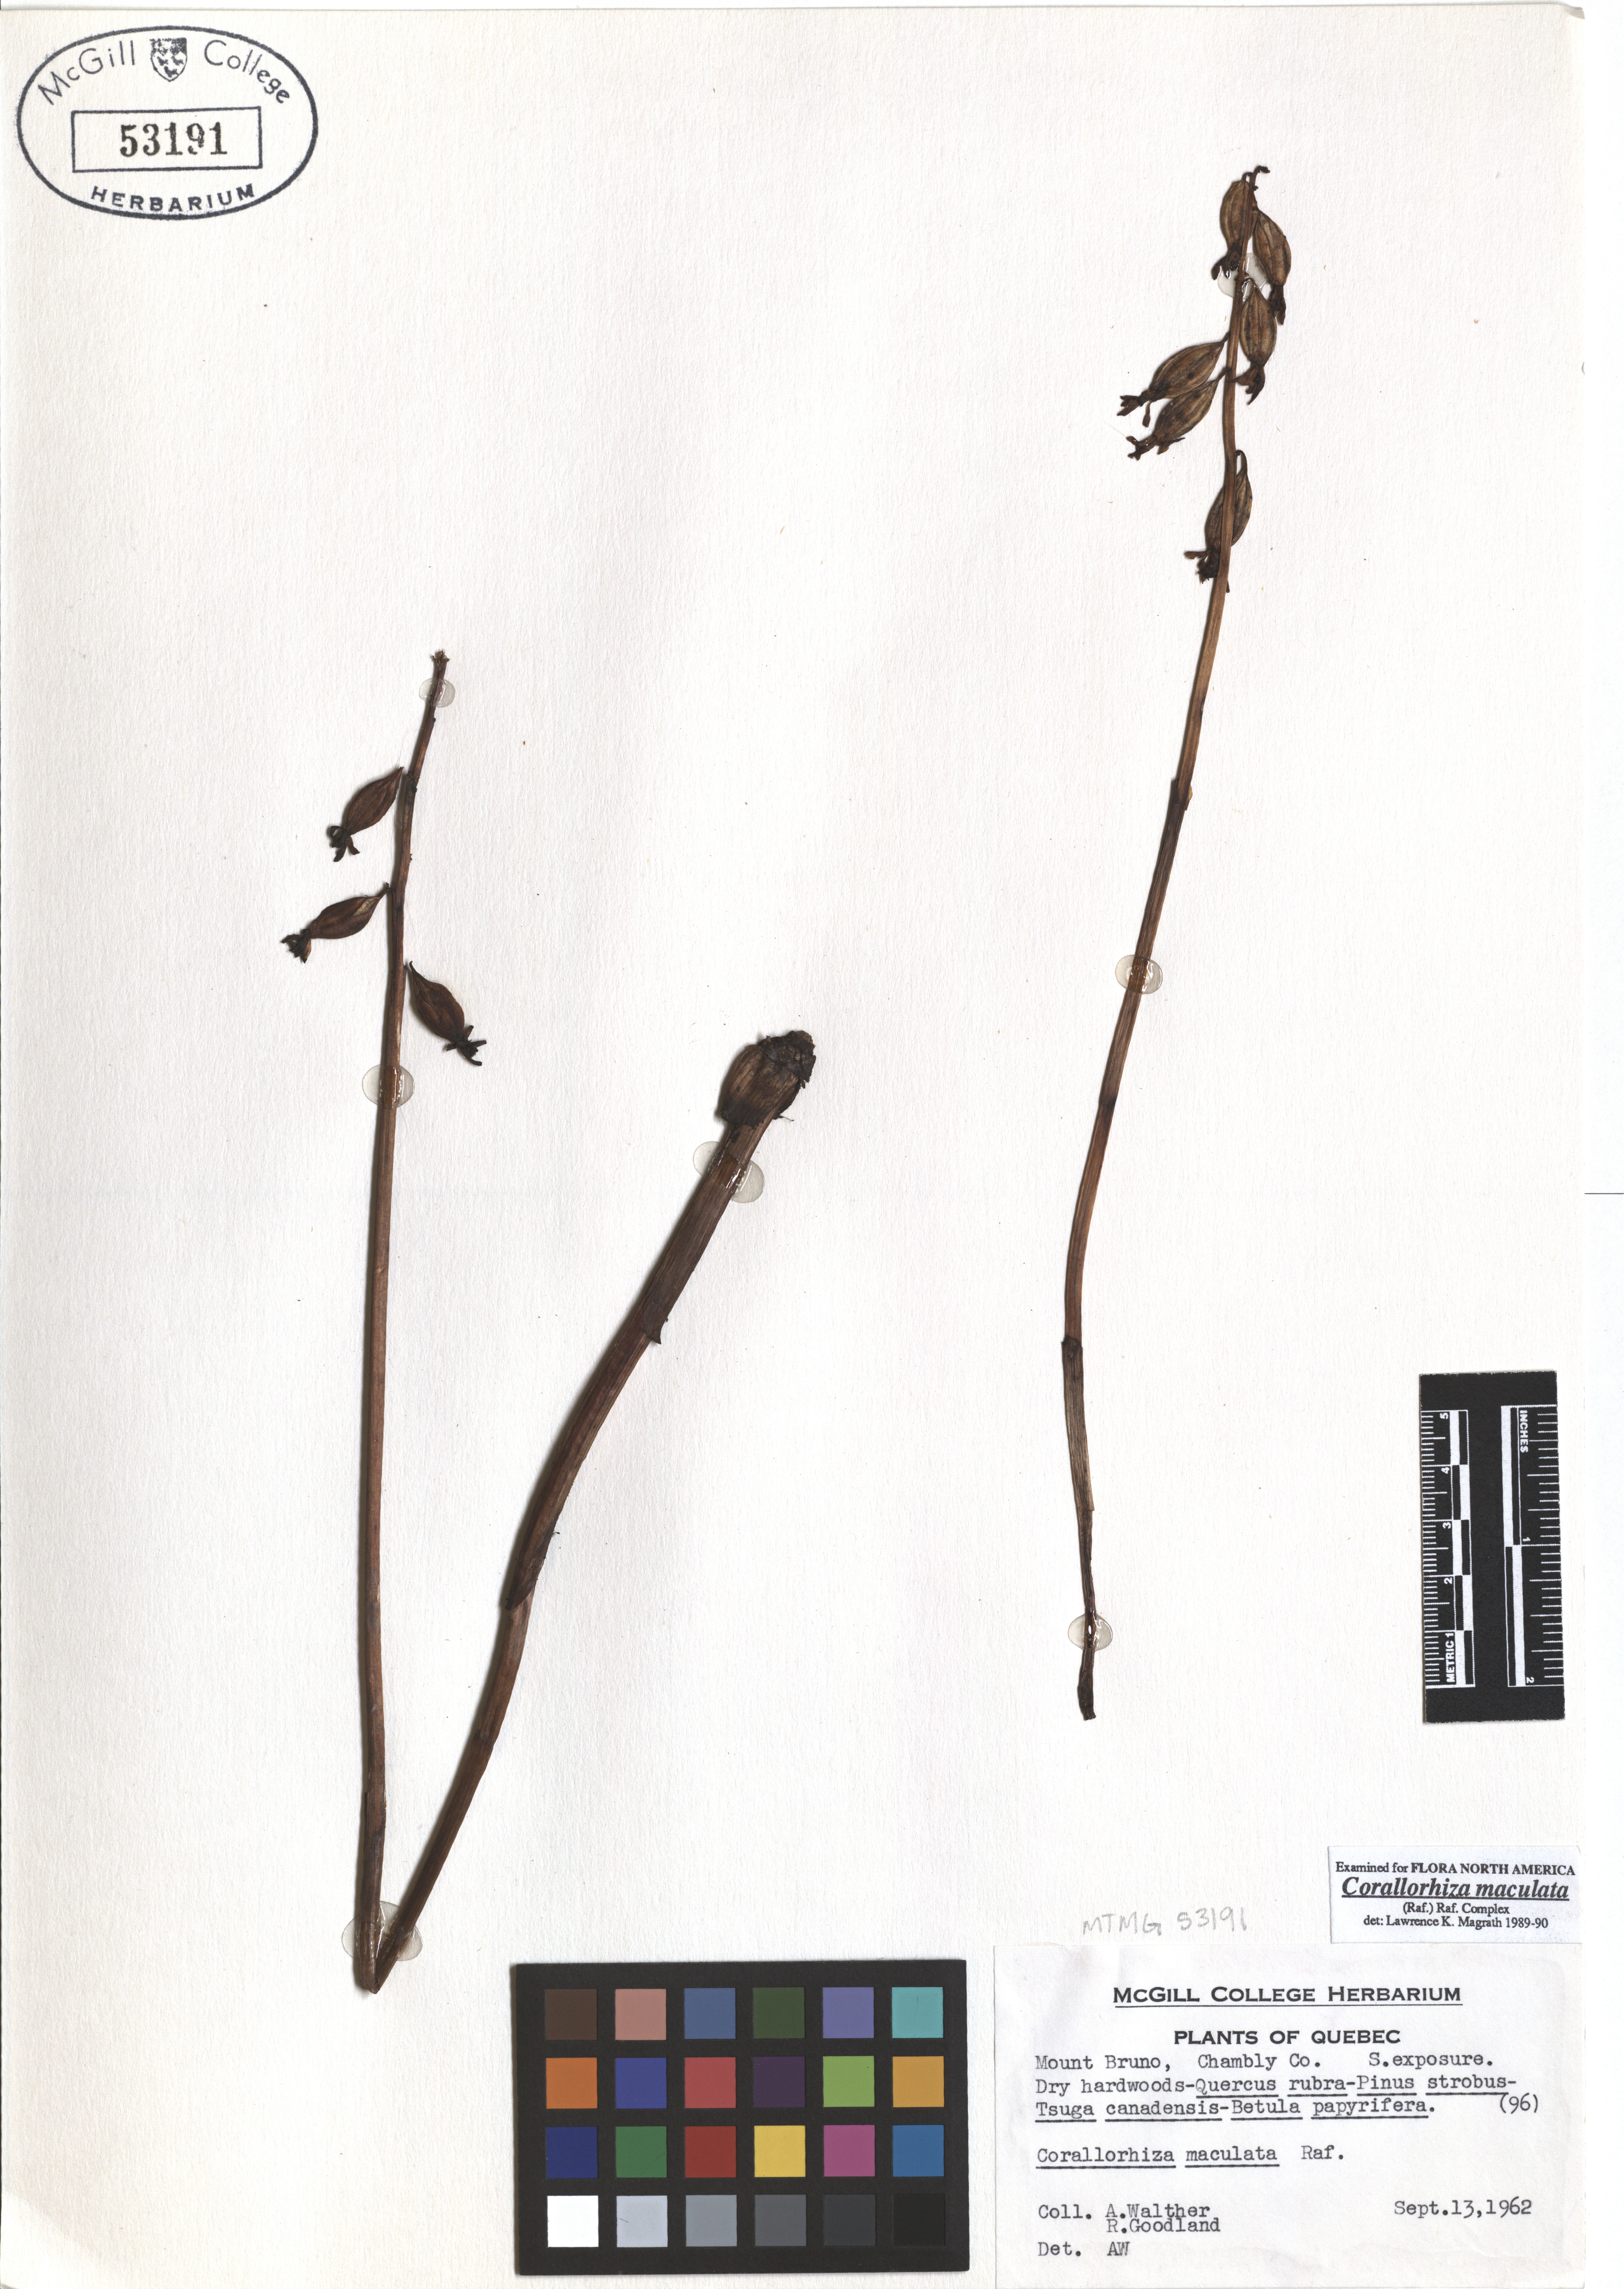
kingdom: Plantae
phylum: Tracheophyta
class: Liliopsida
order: Asparagales
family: Orchidaceae
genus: Corallorhiza
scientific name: Corallorhiza maculata
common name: Spotted coralroot
